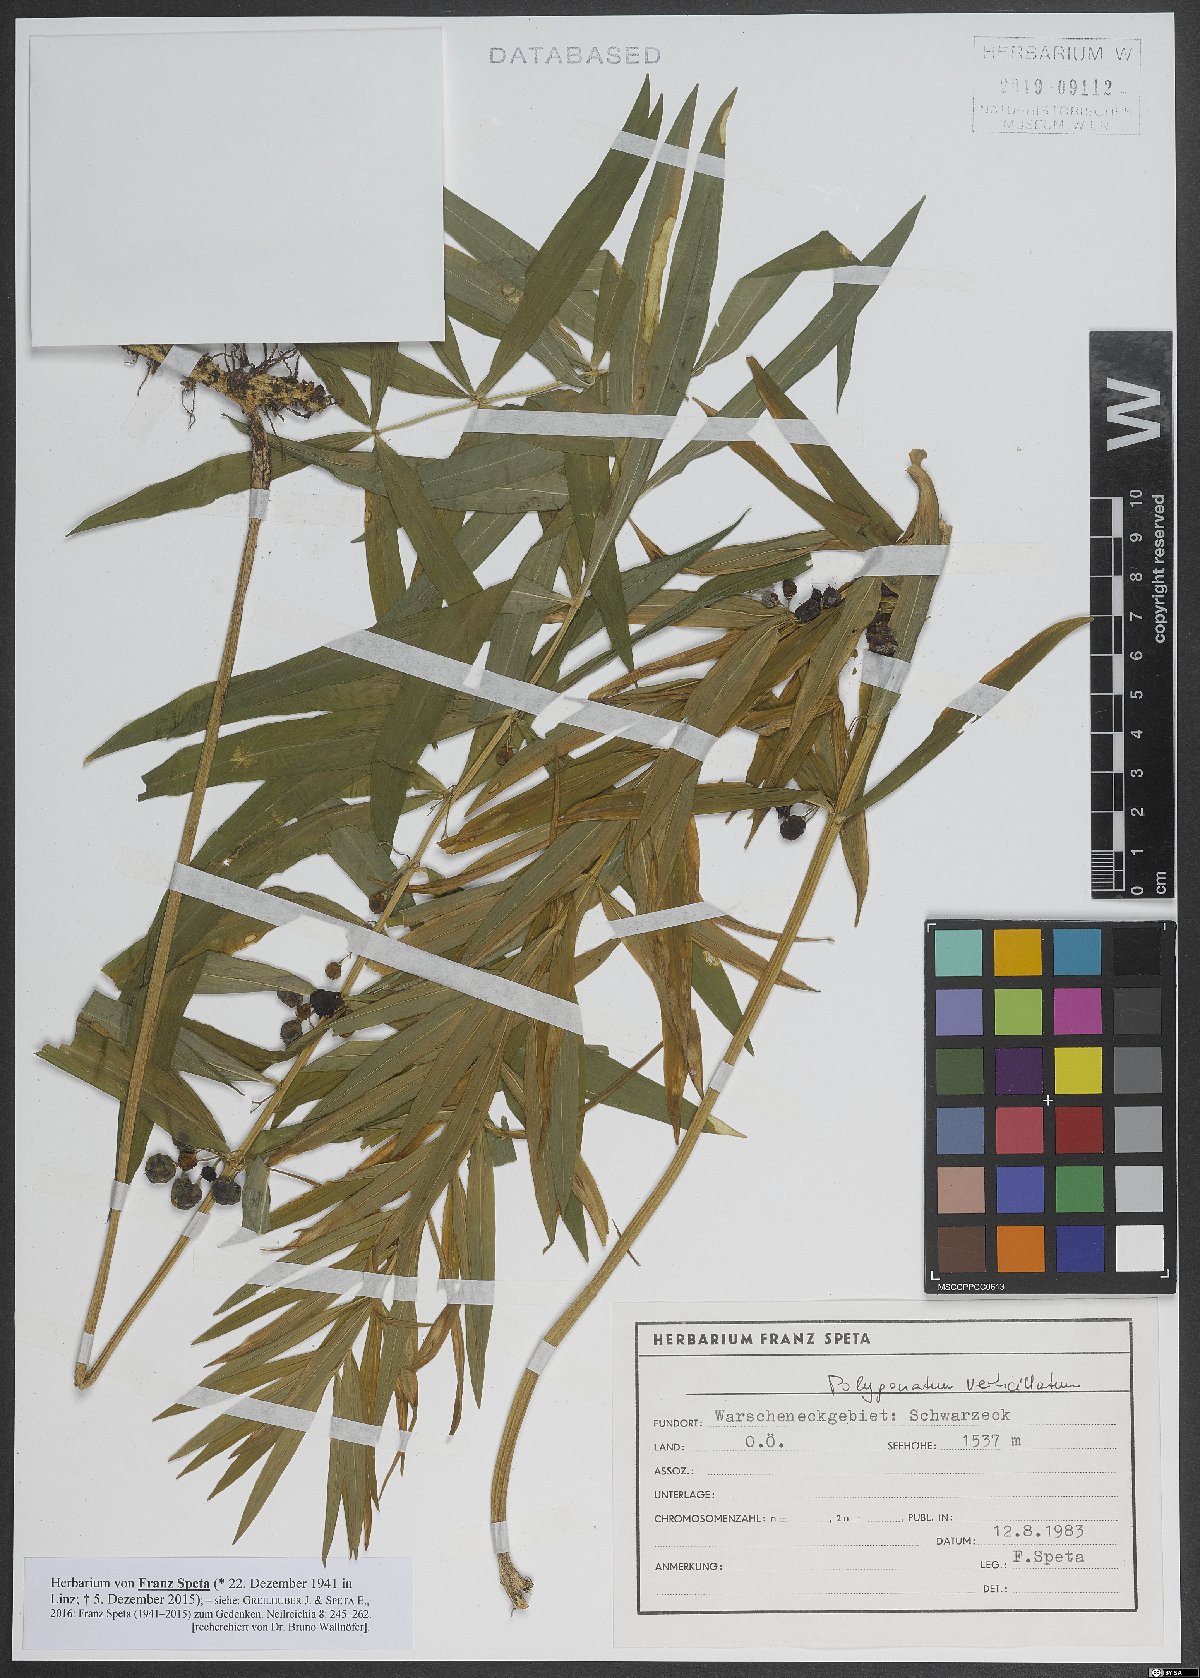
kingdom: Plantae
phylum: Tracheophyta
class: Liliopsida
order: Asparagales
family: Asparagaceae
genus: Polygonatum
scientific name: Polygonatum verticillatum
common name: Whorled solomon's-seal
